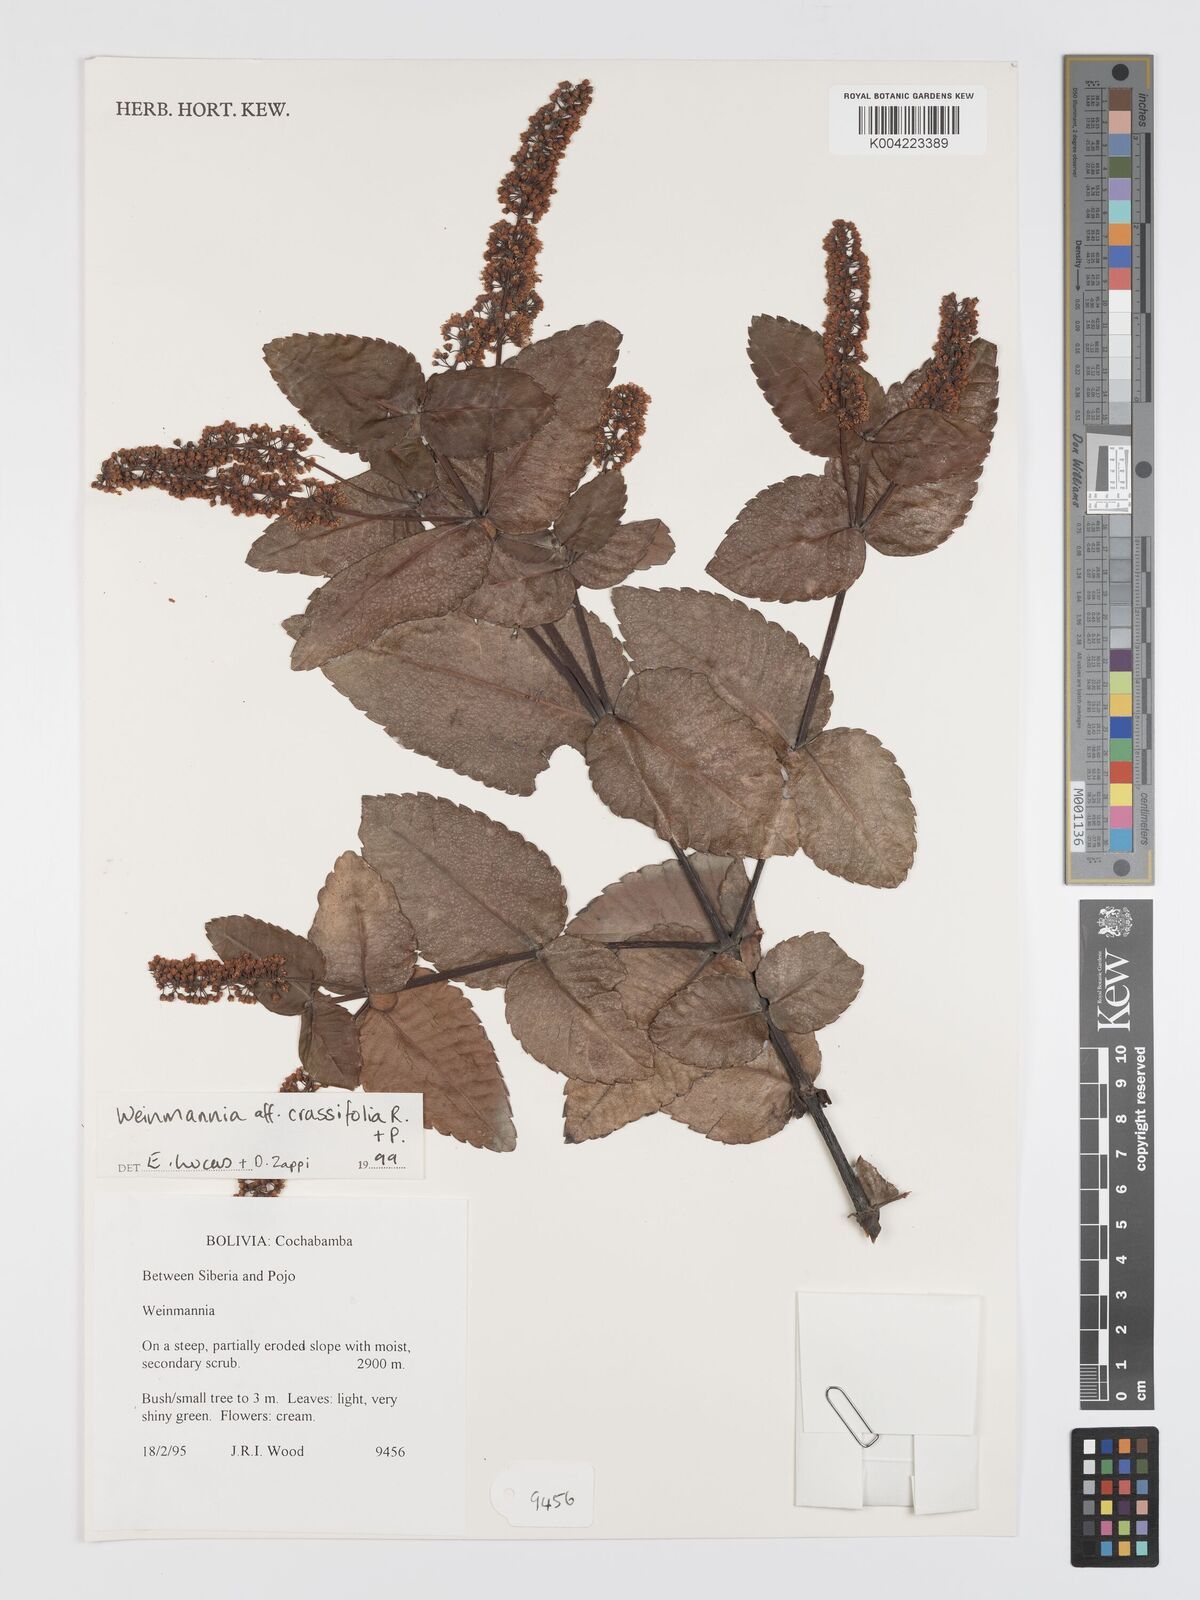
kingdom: Plantae
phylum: Tracheophyta
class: Magnoliopsida
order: Oxalidales
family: Cunoniaceae
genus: Weinmannia
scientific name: Weinmannia crassifolia
